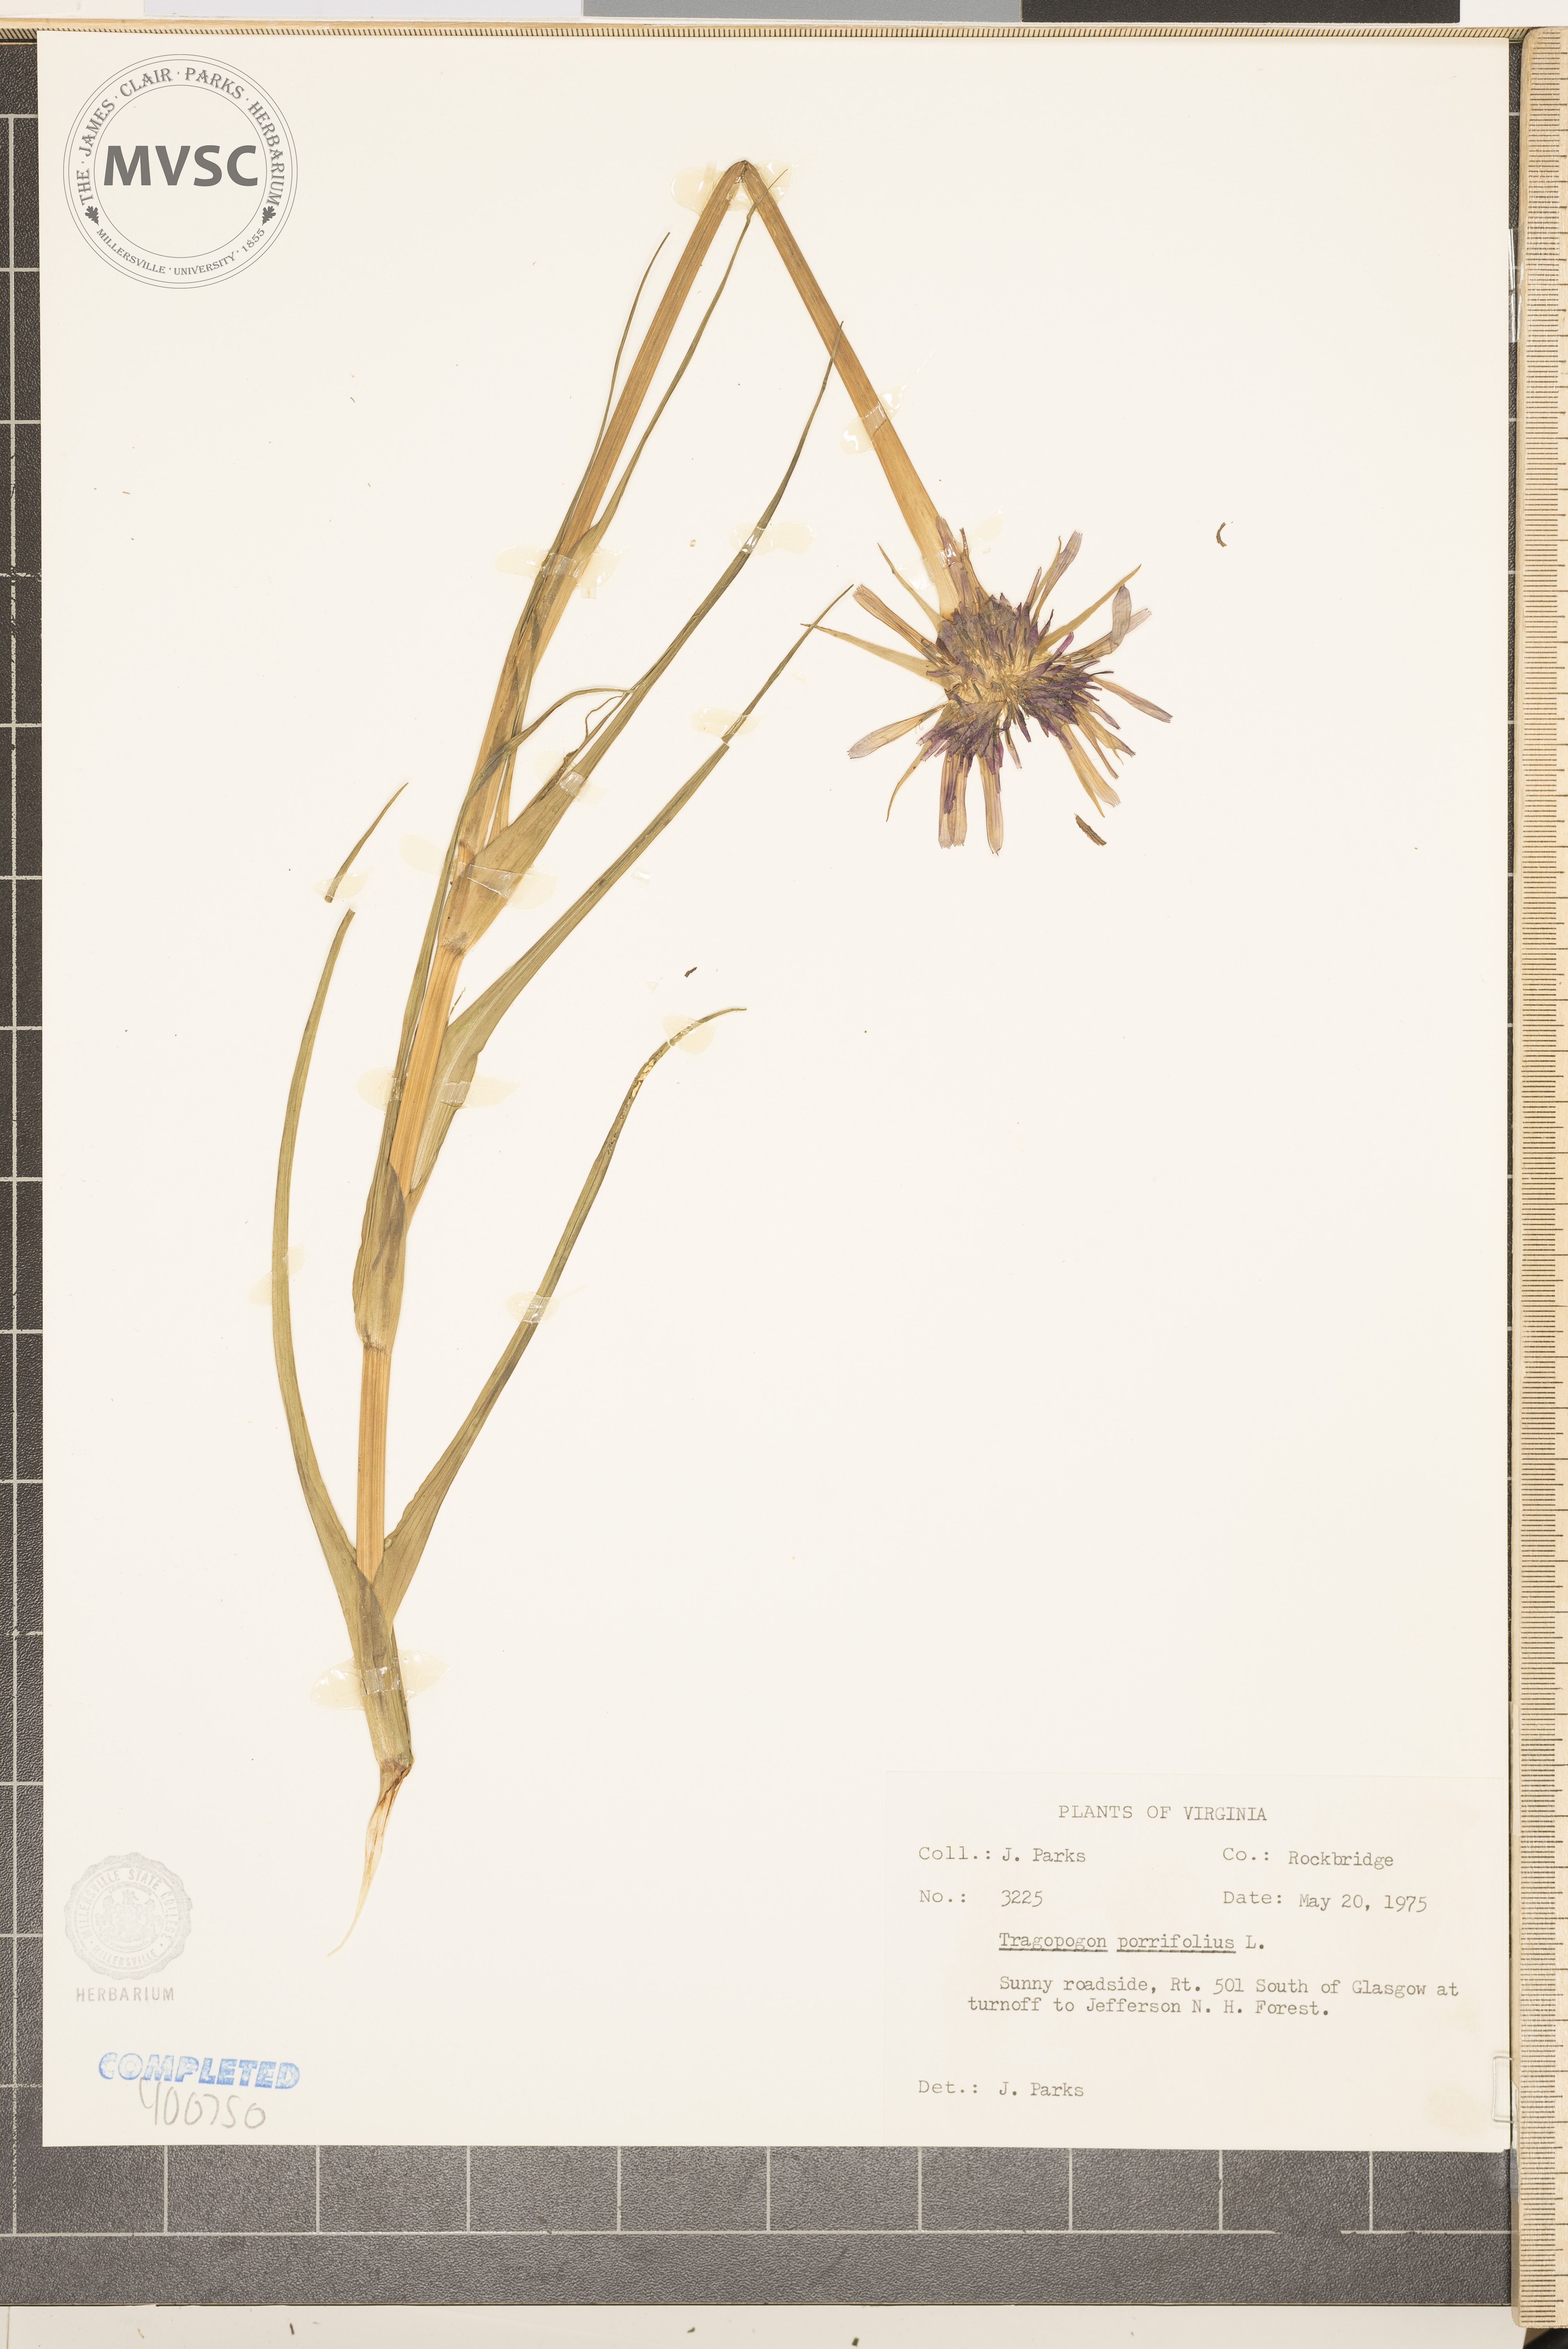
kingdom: Plantae
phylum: Tracheophyta
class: Magnoliopsida
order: Asterales
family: Asteraceae
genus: Tragopogon
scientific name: Tragopogon porrifolius
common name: Salsify
